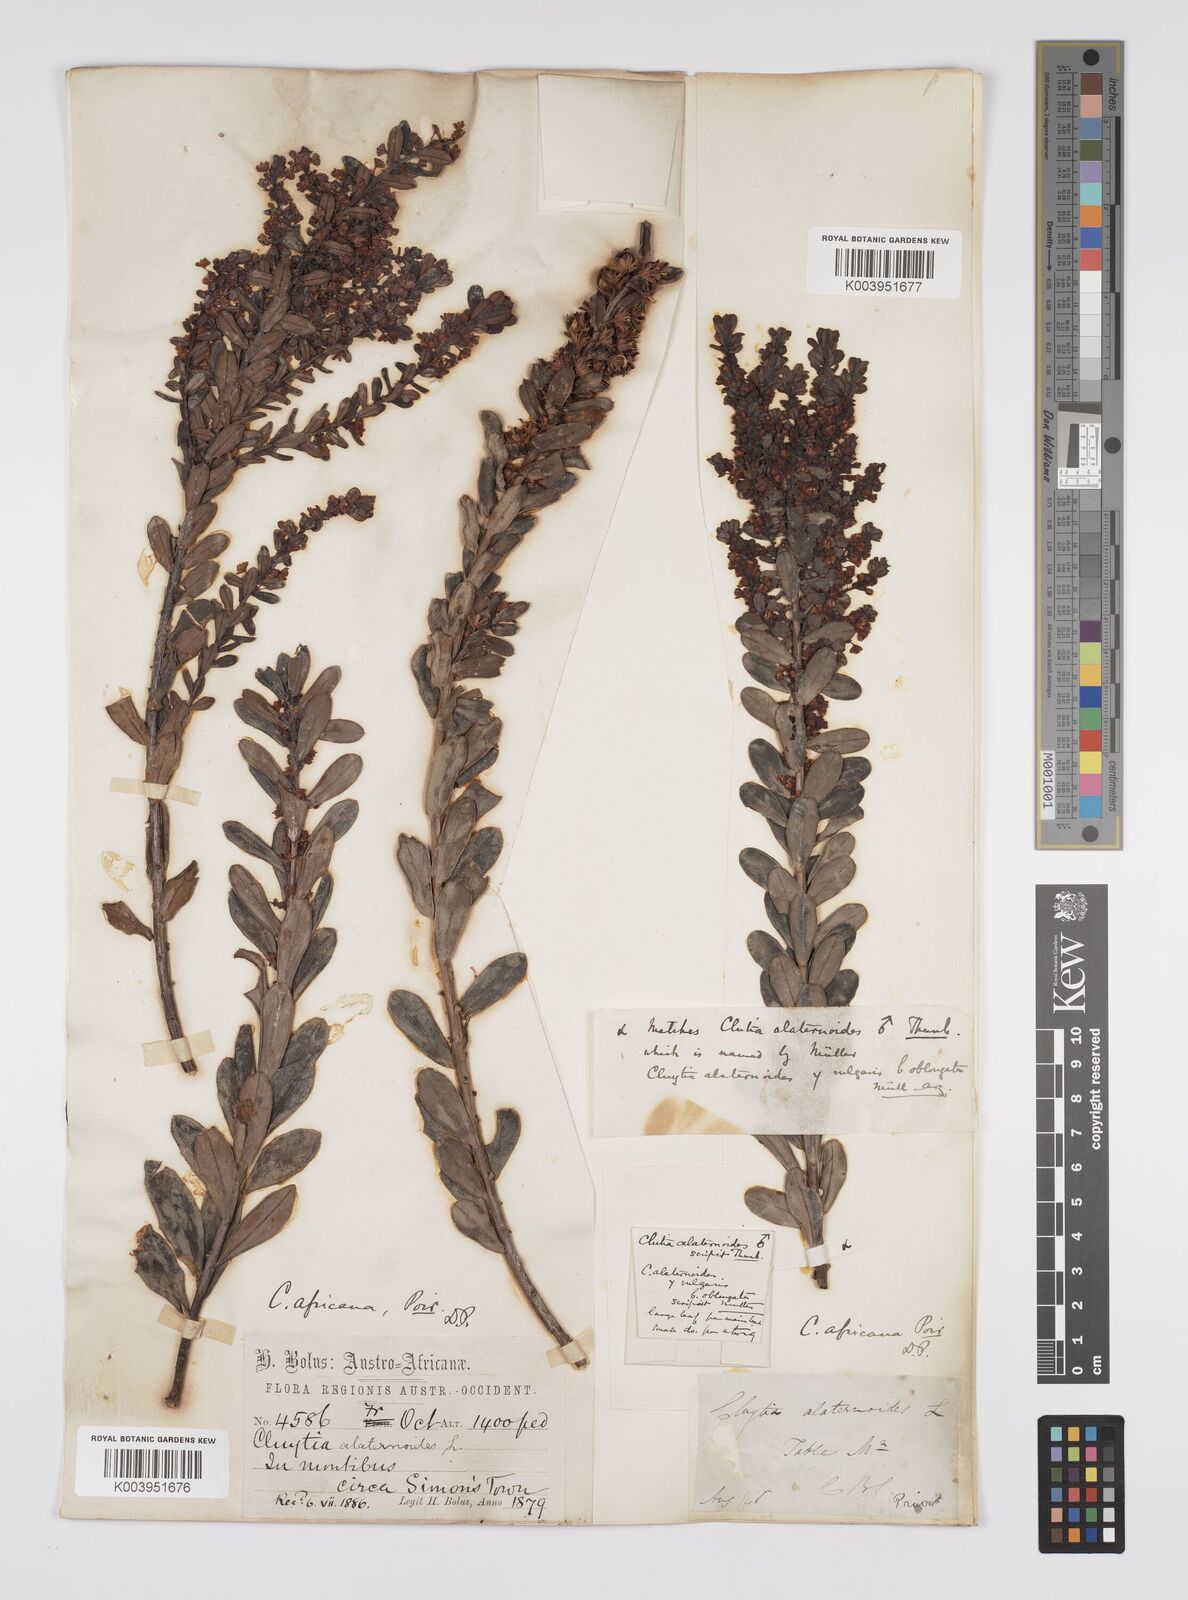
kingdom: Plantae
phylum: Tracheophyta
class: Magnoliopsida
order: Malpighiales
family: Peraceae
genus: Clutia
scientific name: Clutia africana
